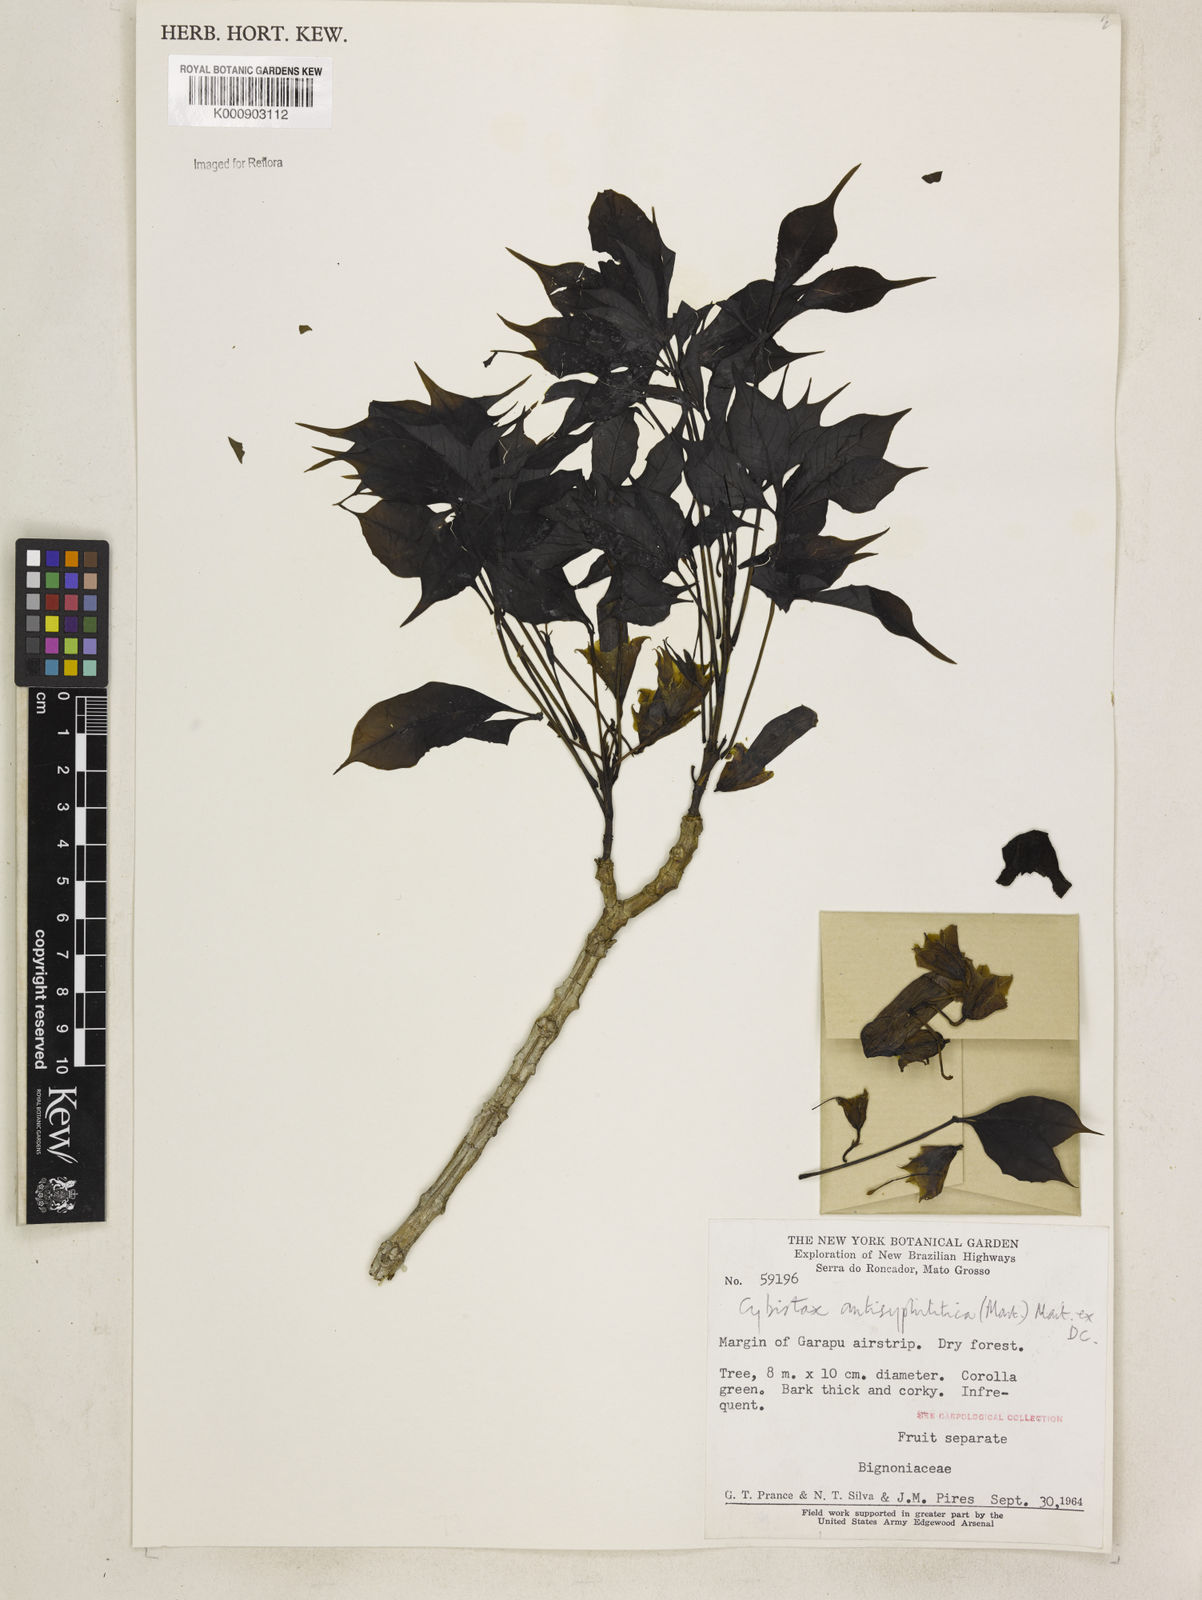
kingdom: Plantae
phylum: Tracheophyta
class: Magnoliopsida
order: Lamiales
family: Bignoniaceae
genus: Cybistax
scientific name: Cybistax antisyphilitica
